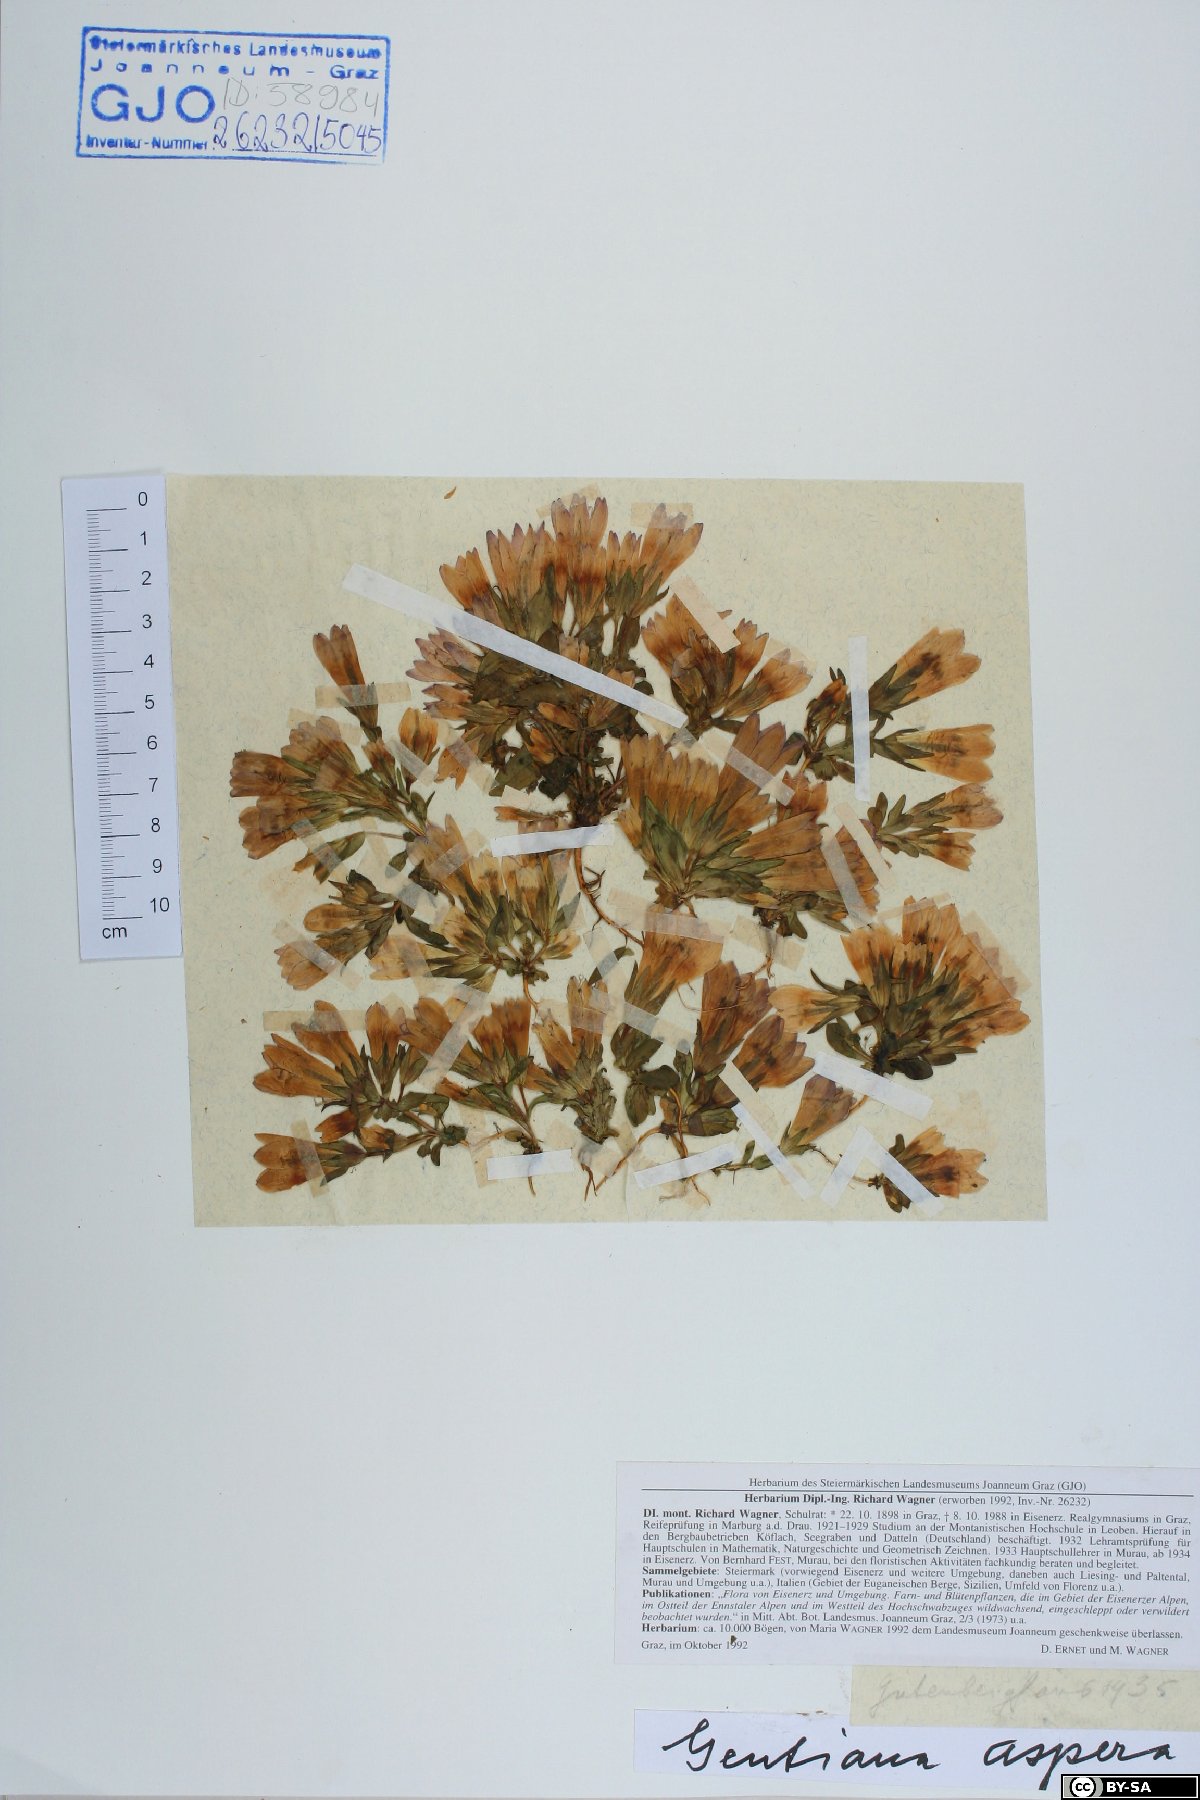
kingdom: Plantae
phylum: Tracheophyta
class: Magnoliopsida
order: Gentianales
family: Gentianaceae
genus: Gentianella
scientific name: Gentianella obtusifolia
